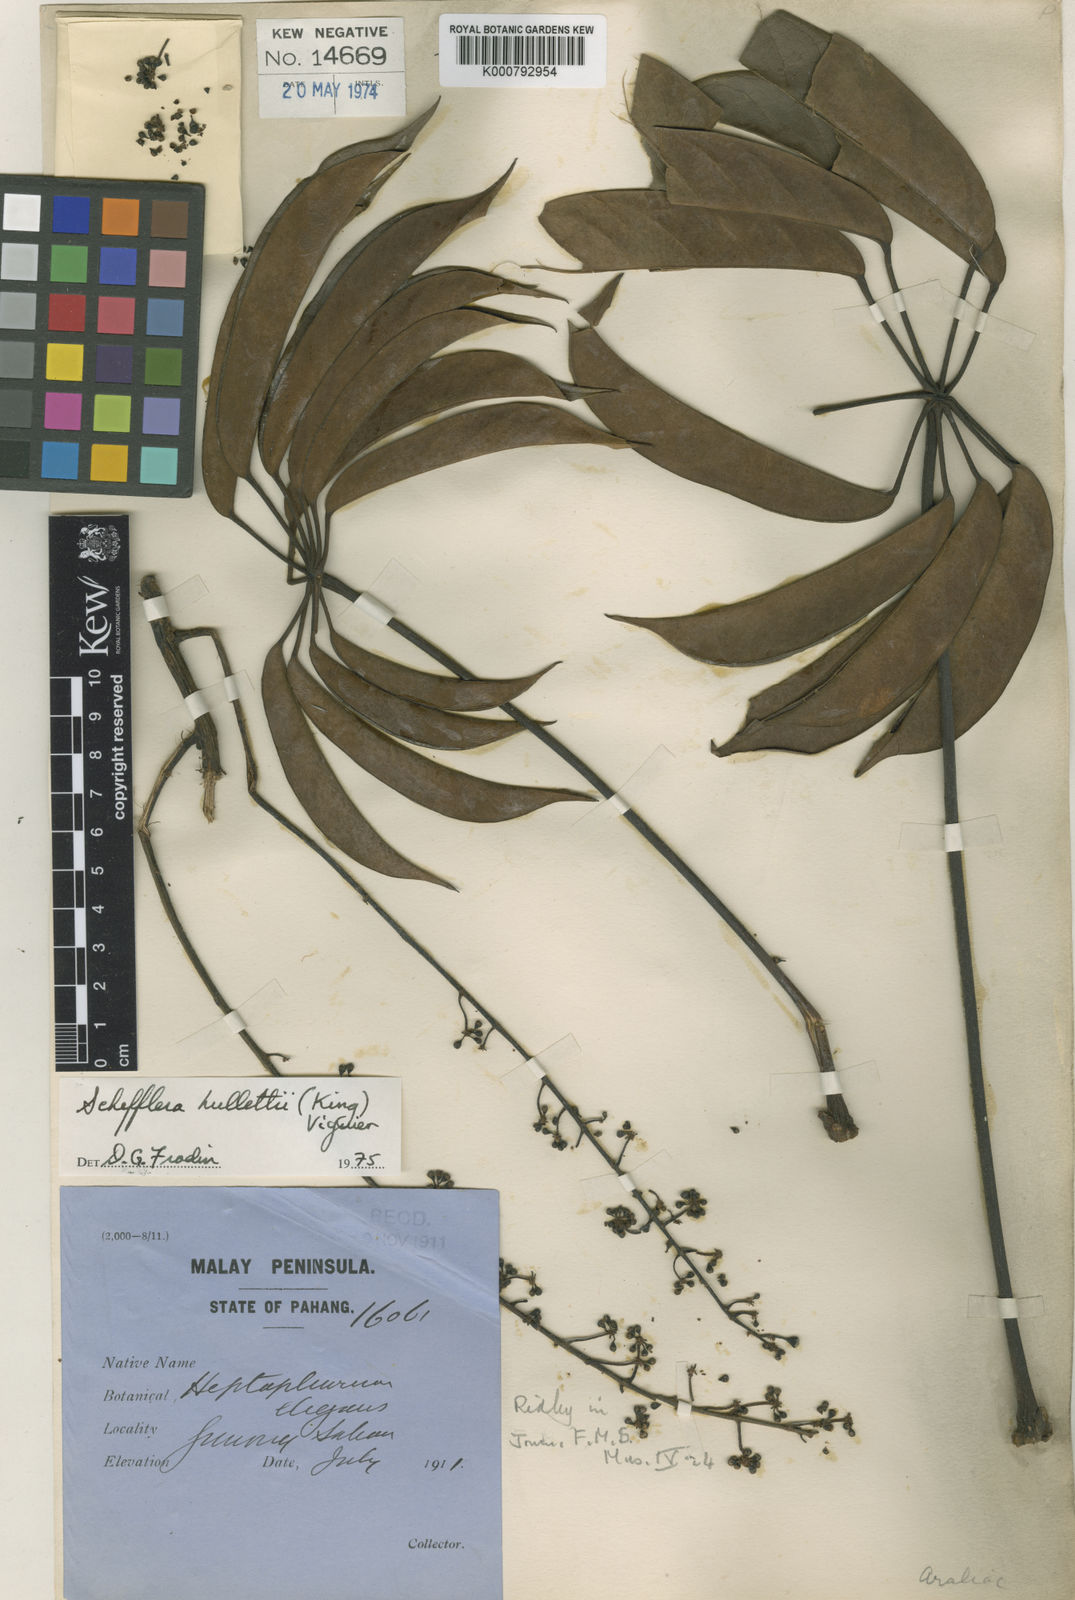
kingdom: Plantae
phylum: Tracheophyta
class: Magnoliopsida
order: Apiales
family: Araliaceae
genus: Heptapleurum
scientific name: Heptapleurum hullettii
